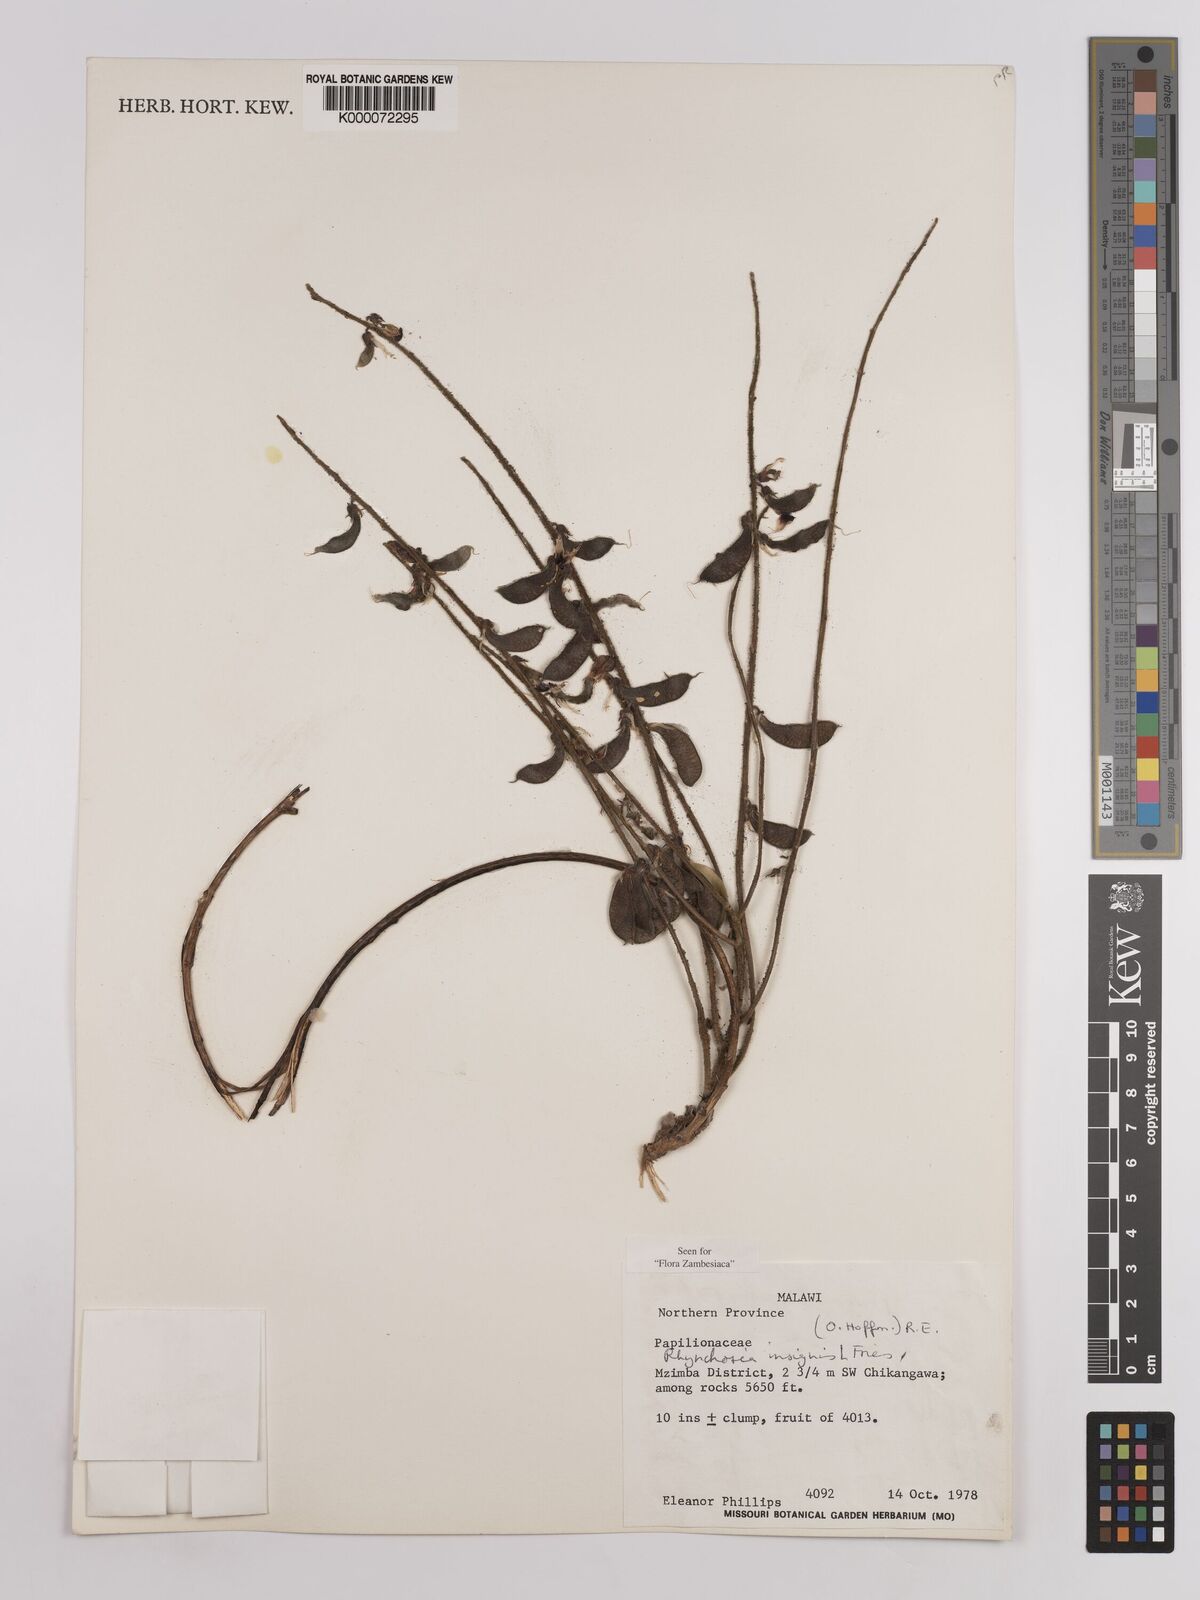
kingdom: Plantae
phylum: Tracheophyta
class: Magnoliopsida
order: Fabales
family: Fabaceae
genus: Rhynchosia
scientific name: Rhynchosia insignis
